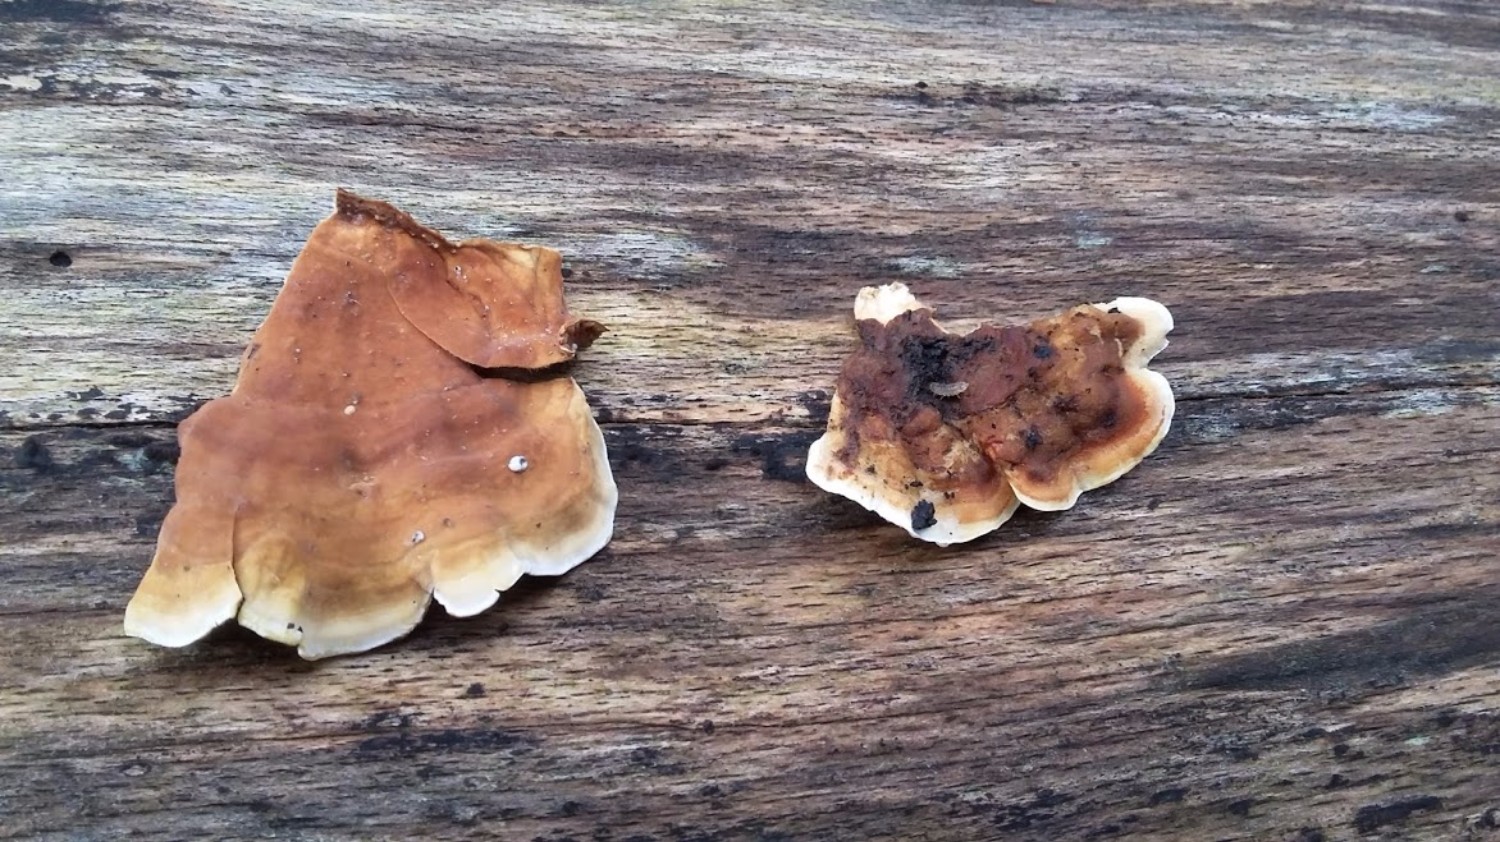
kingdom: Fungi
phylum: Basidiomycota
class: Agaricomycetes
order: Russulales
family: Stereaceae
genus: Stereum
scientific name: Stereum subtomentosum
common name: smuk lædersvamp
